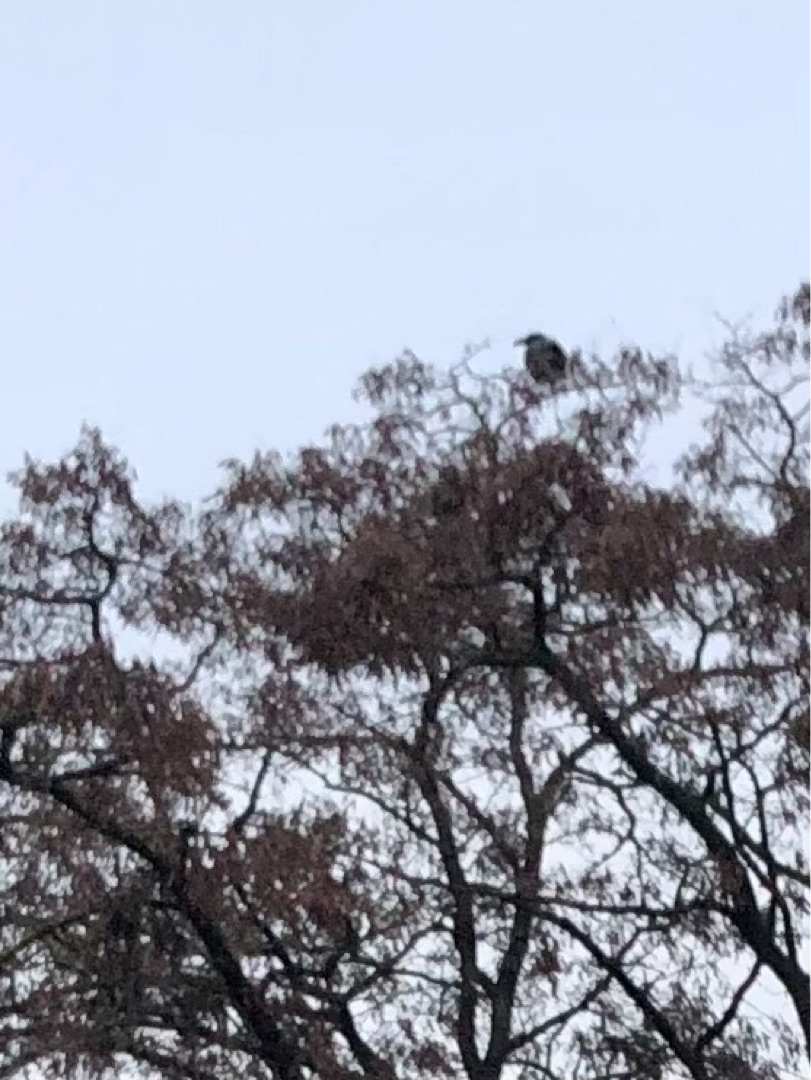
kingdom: Animalia
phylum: Chordata
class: Aves
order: Passeriformes
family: Corvidae
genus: Corvus
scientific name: Corvus corax
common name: Ravn
